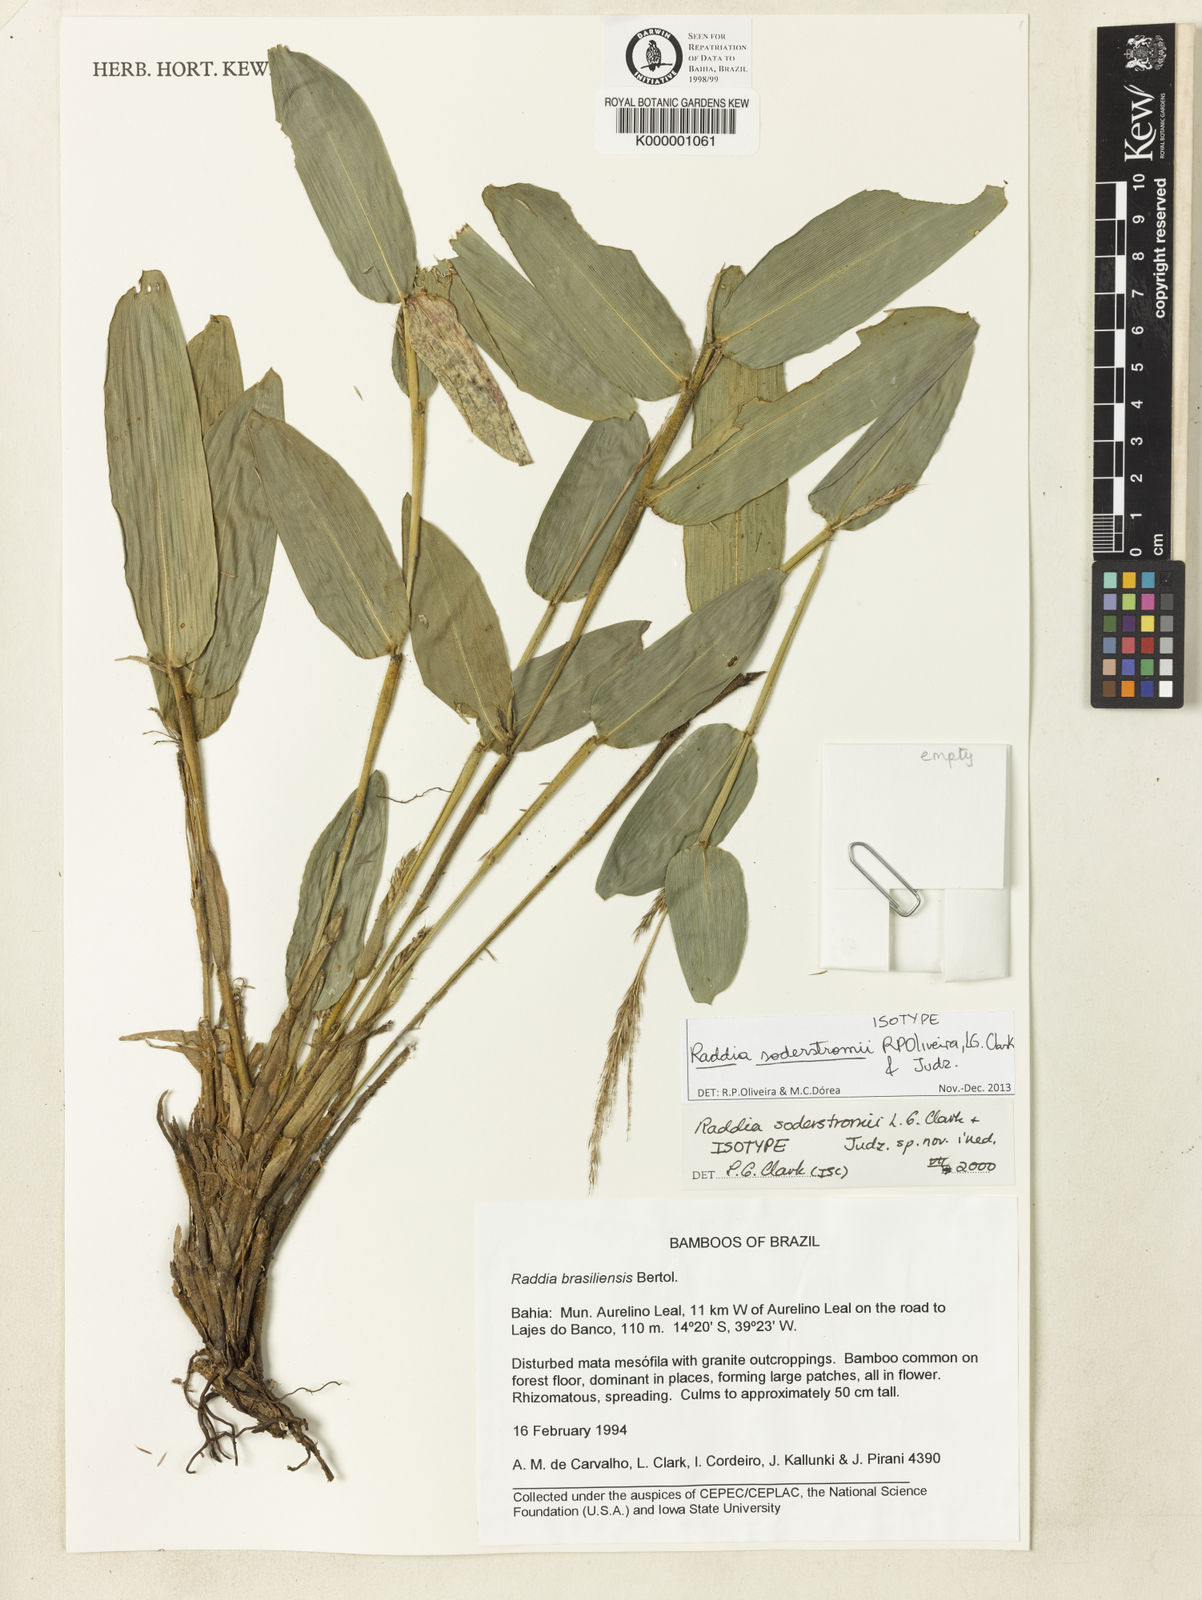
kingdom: Plantae
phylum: Tracheophyta
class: Liliopsida
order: Poales
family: Poaceae
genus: Raddia
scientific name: Raddia soderstromii
